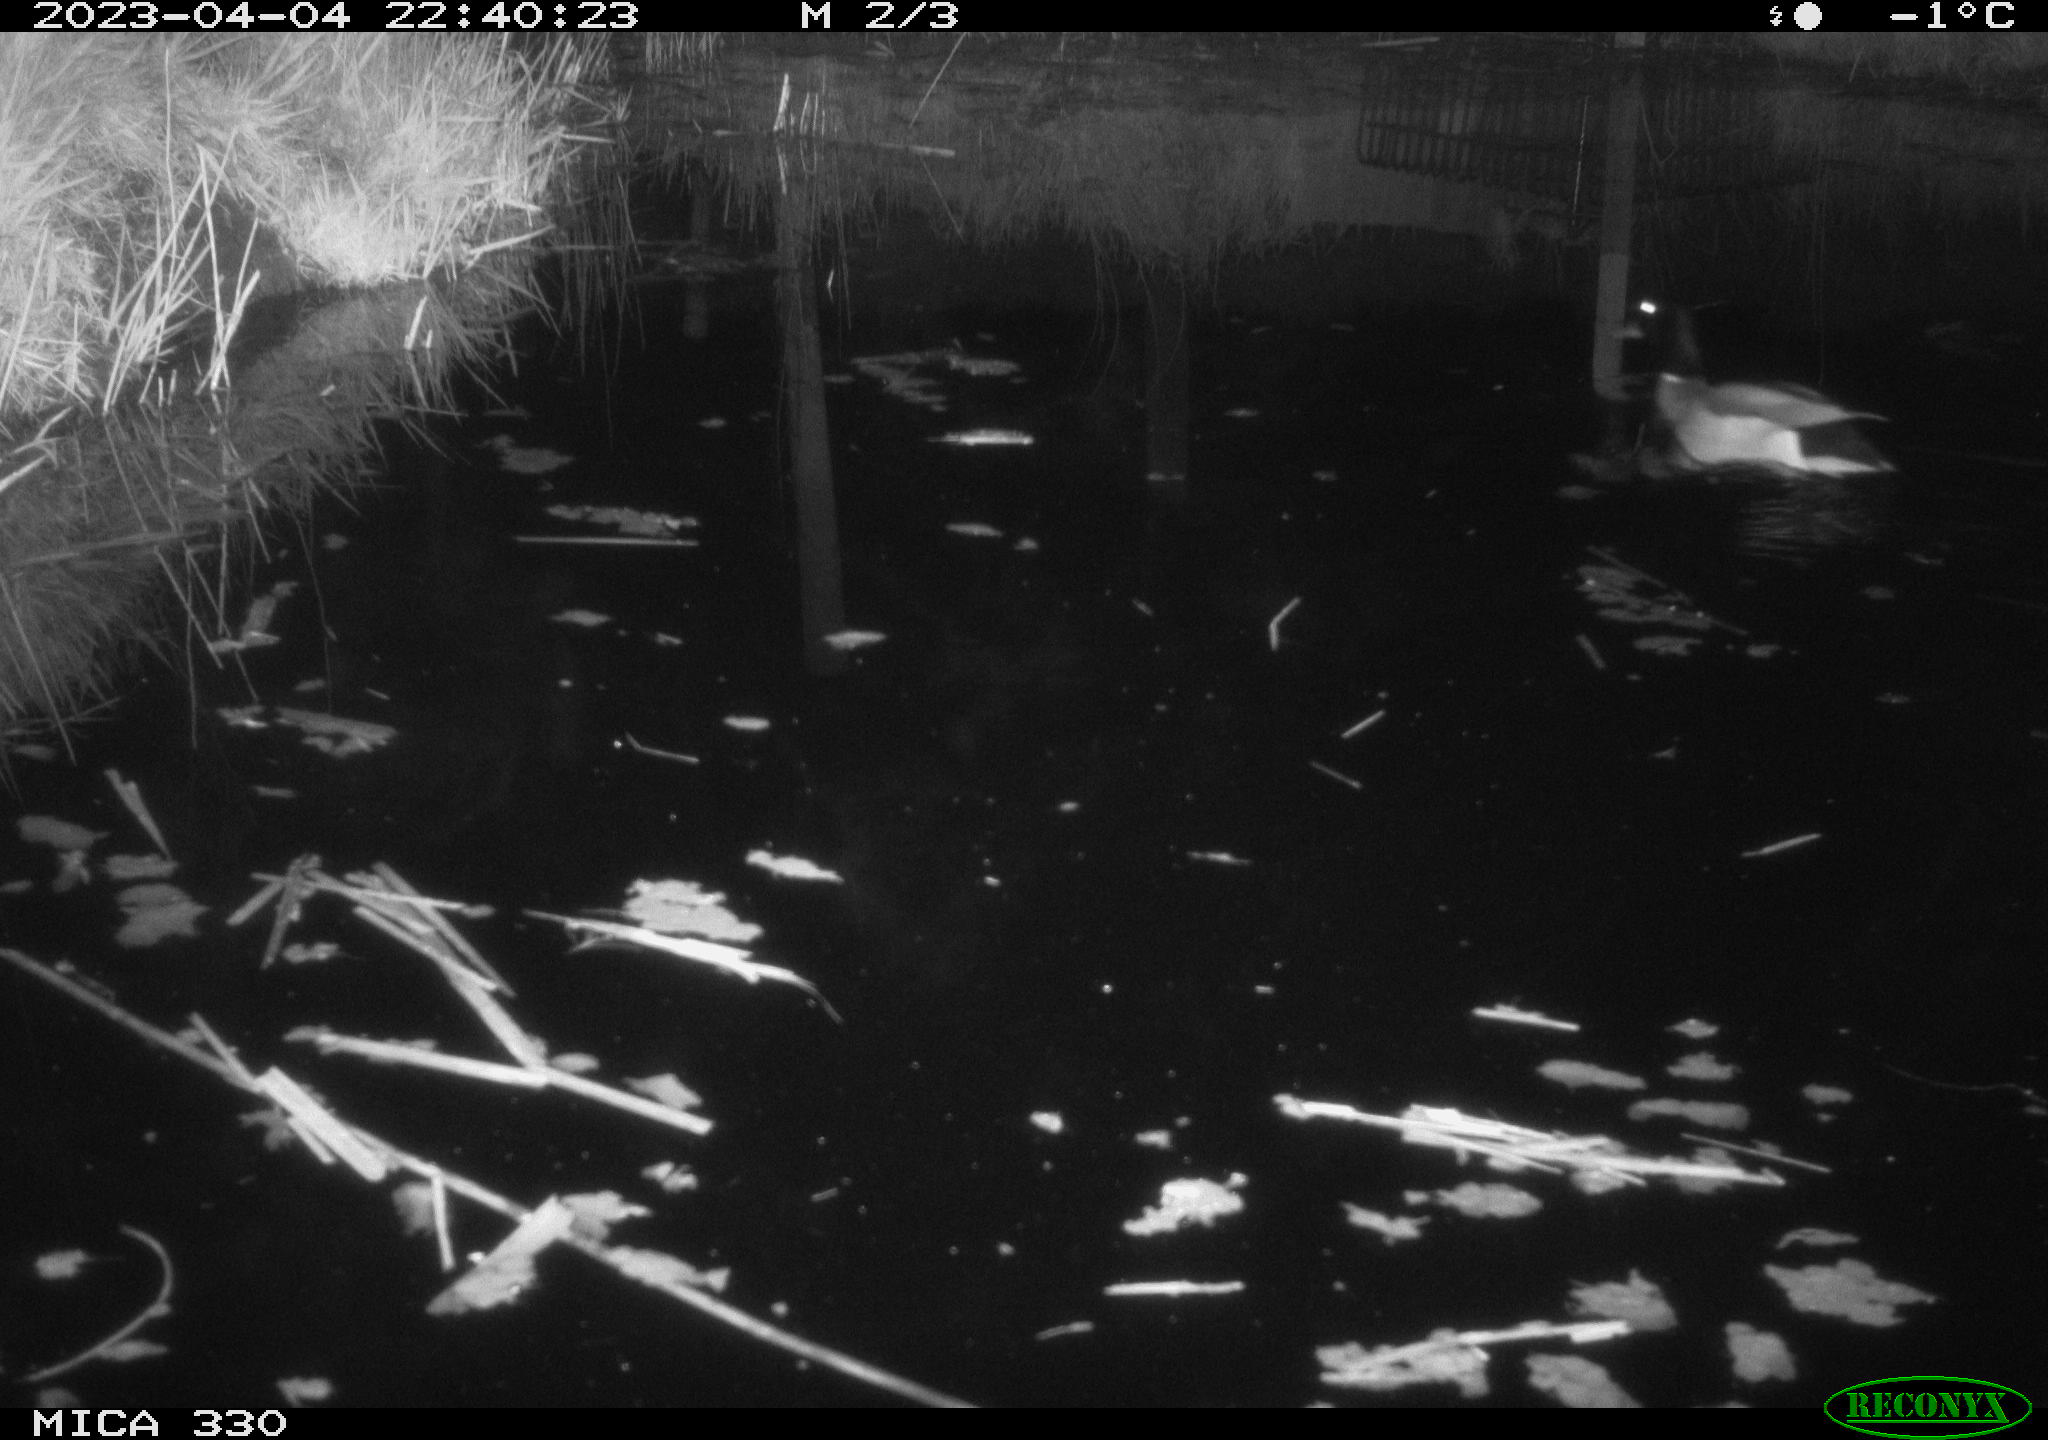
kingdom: Animalia
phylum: Chordata
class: Aves
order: Anseriformes
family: Anatidae
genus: Anas
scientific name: Anas
